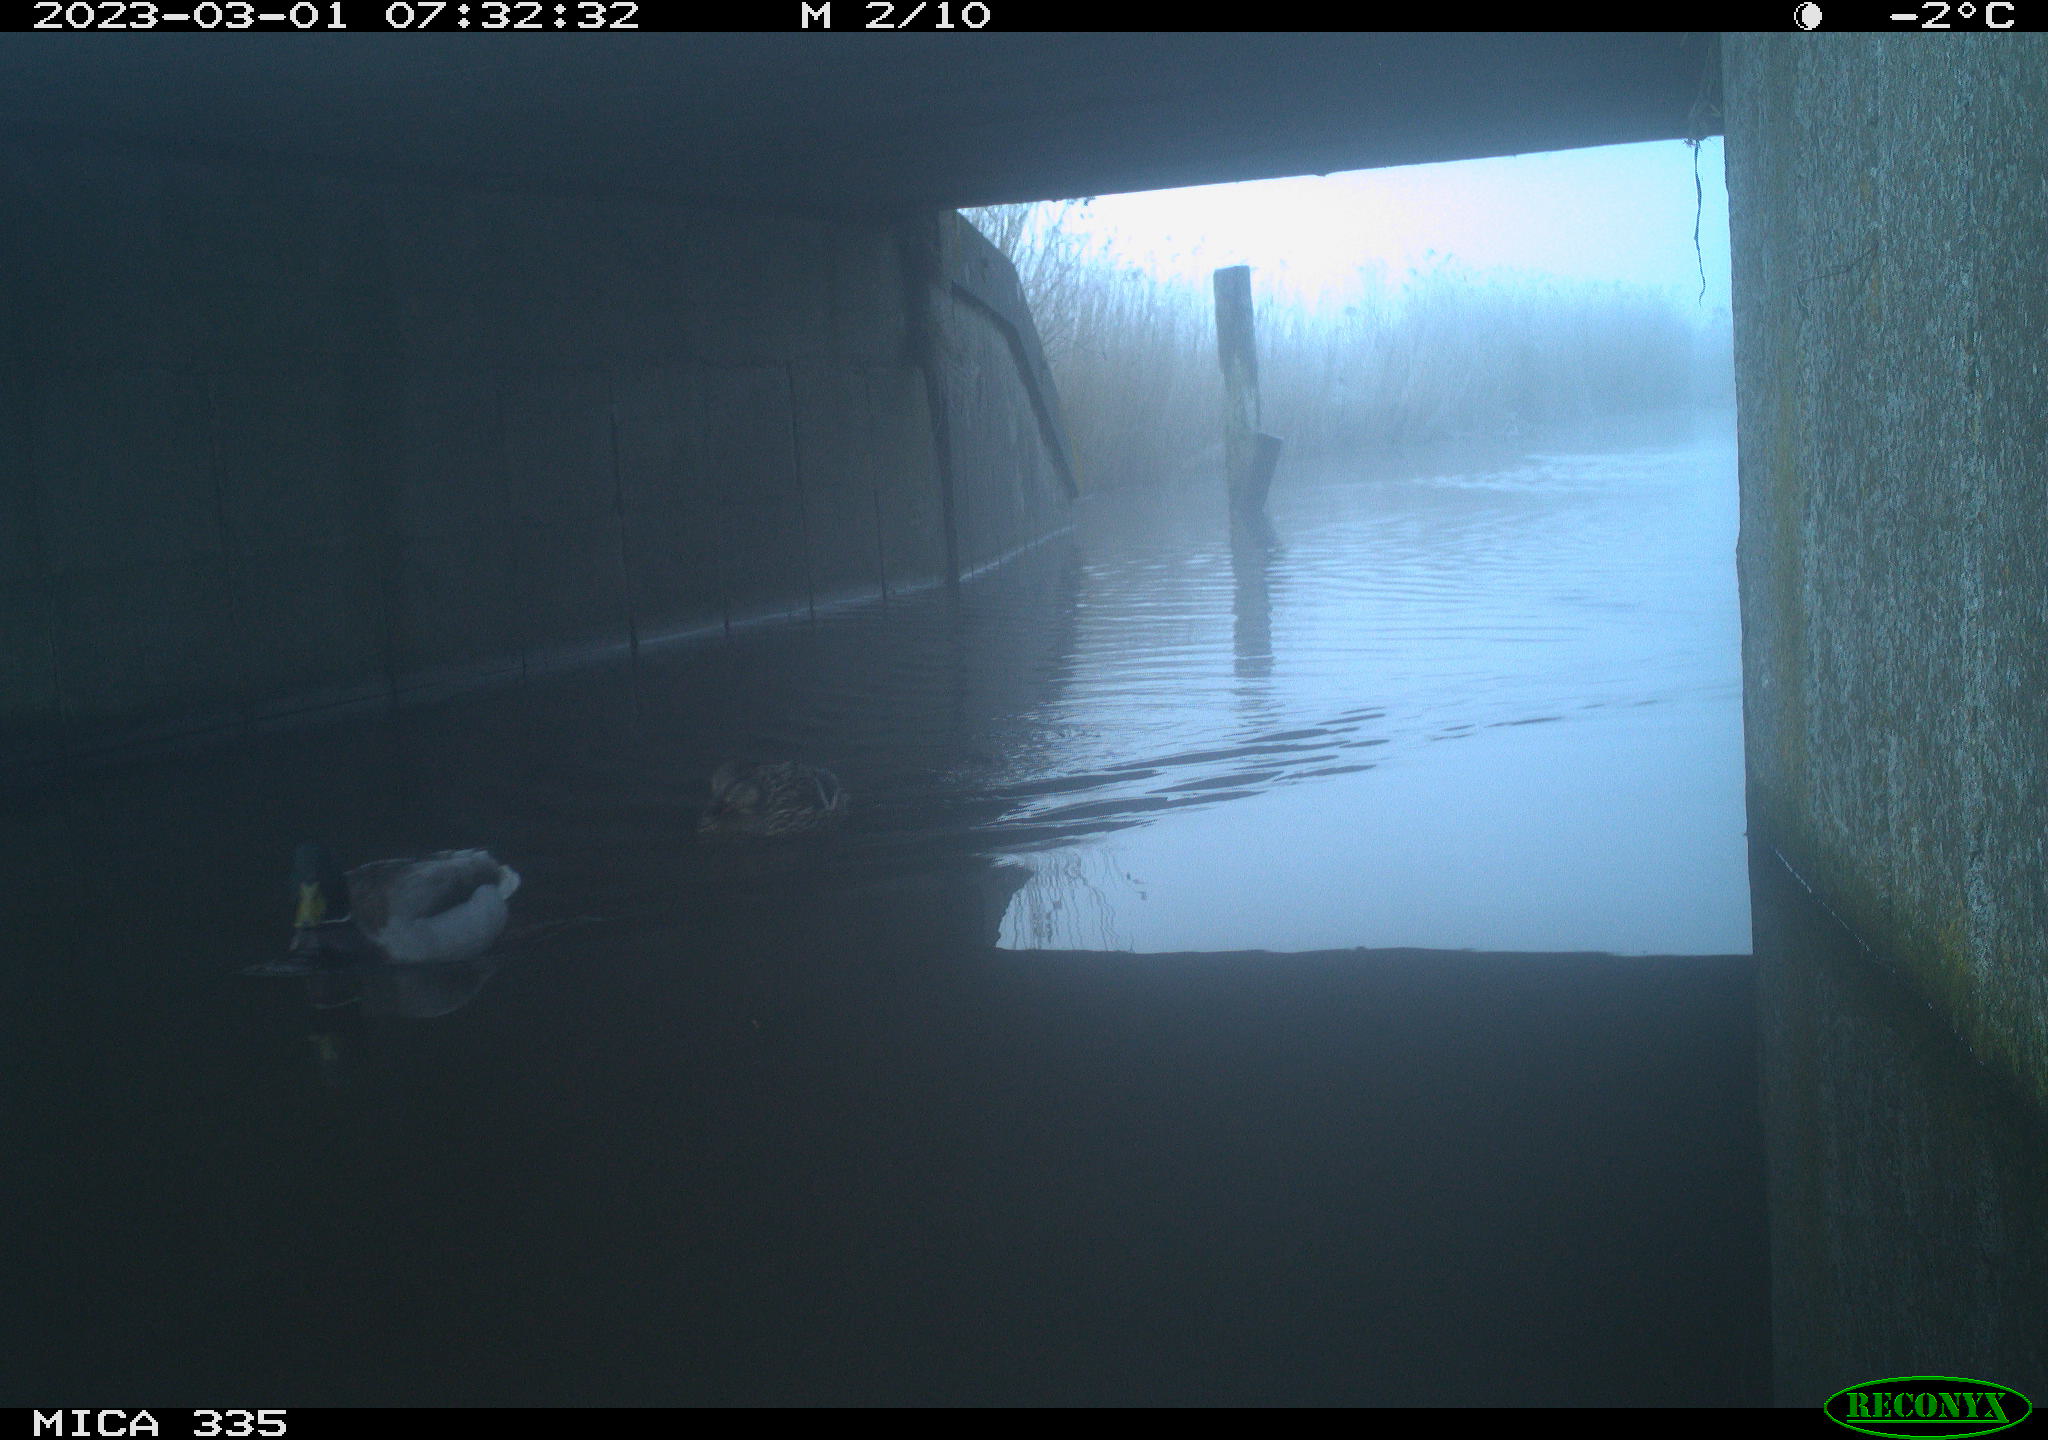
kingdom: Animalia
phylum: Chordata
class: Aves
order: Anseriformes
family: Anatidae
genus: Anas
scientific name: Anas
